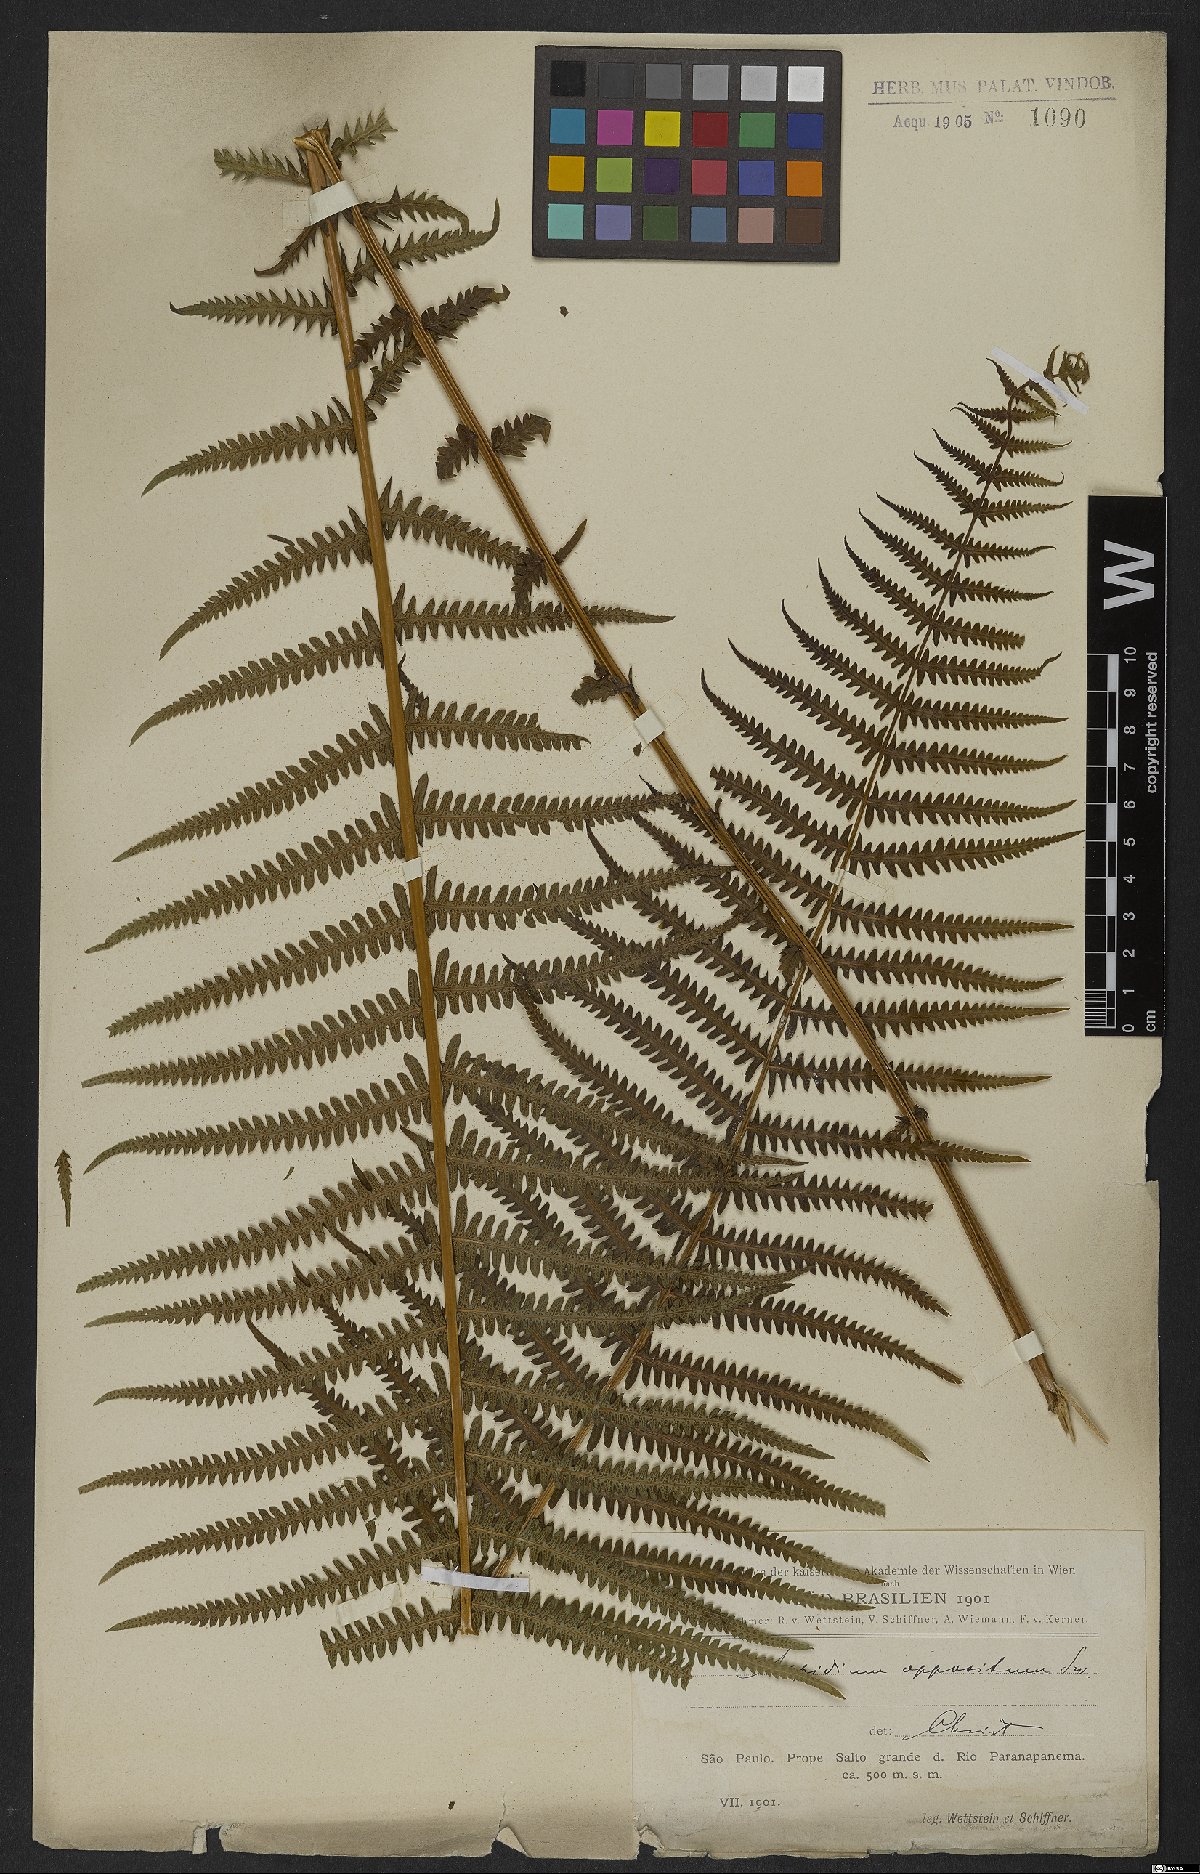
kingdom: Plantae
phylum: Tracheophyta
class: Polypodiopsida
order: Polypodiales
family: Thelypteridaceae
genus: Amauropelta
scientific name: Amauropelta opposita
